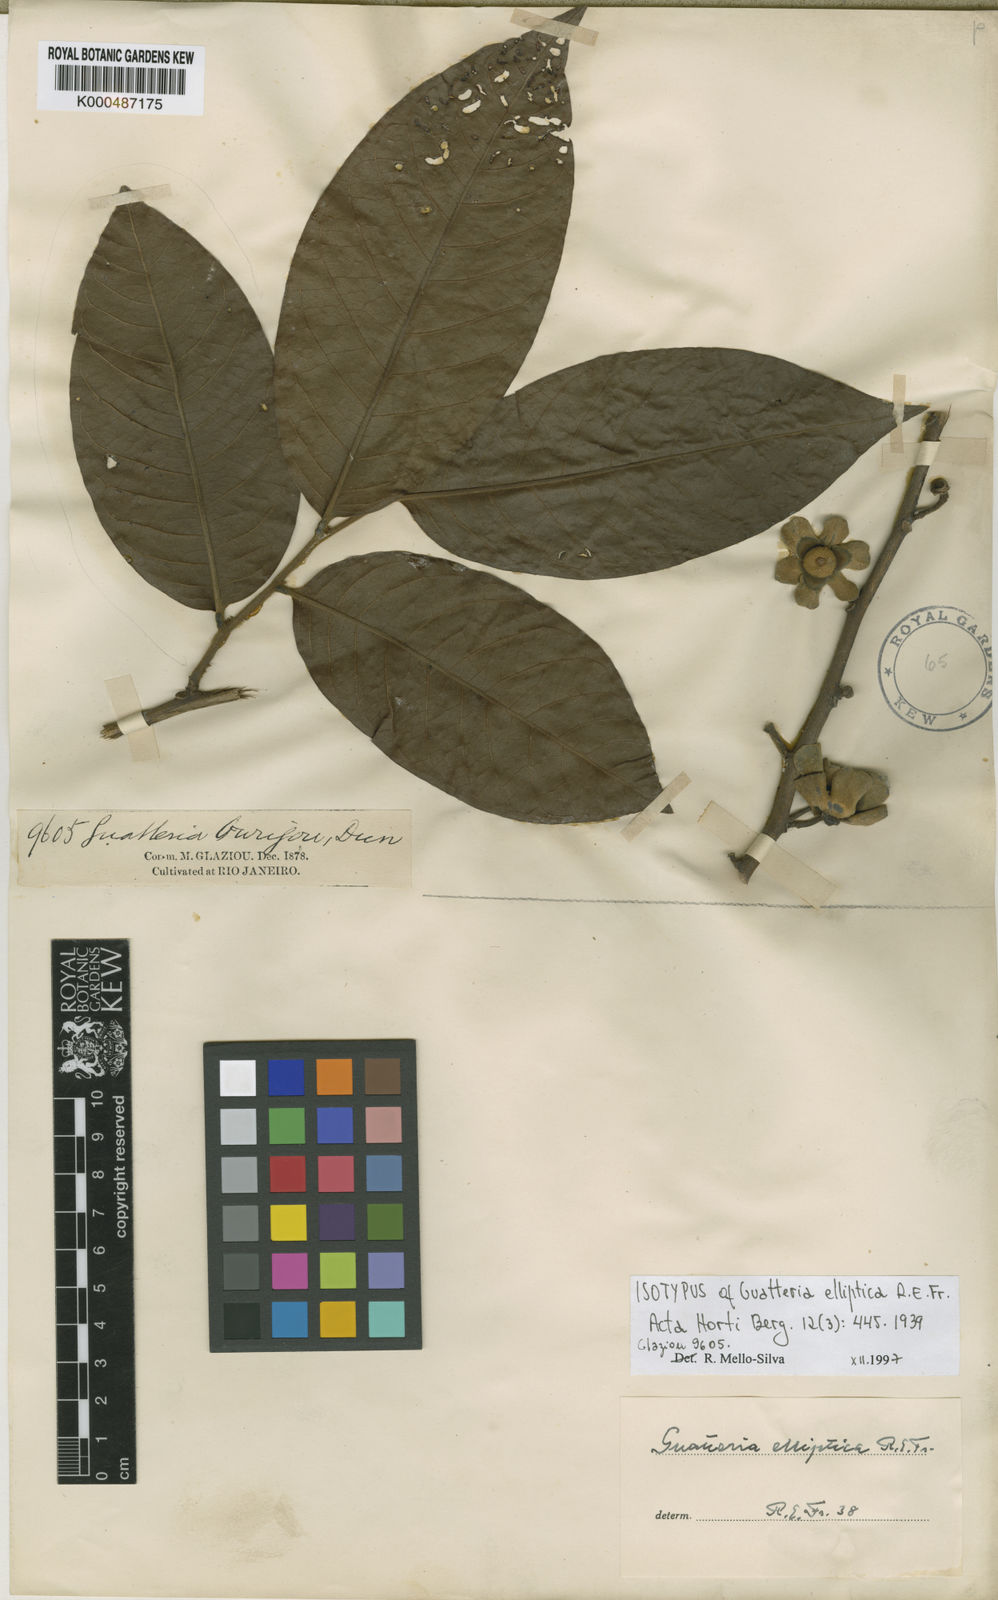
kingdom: Plantae
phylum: Tracheophyta
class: Magnoliopsida
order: Magnoliales
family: Annonaceae
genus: Guatteria
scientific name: Guatteria punctata
